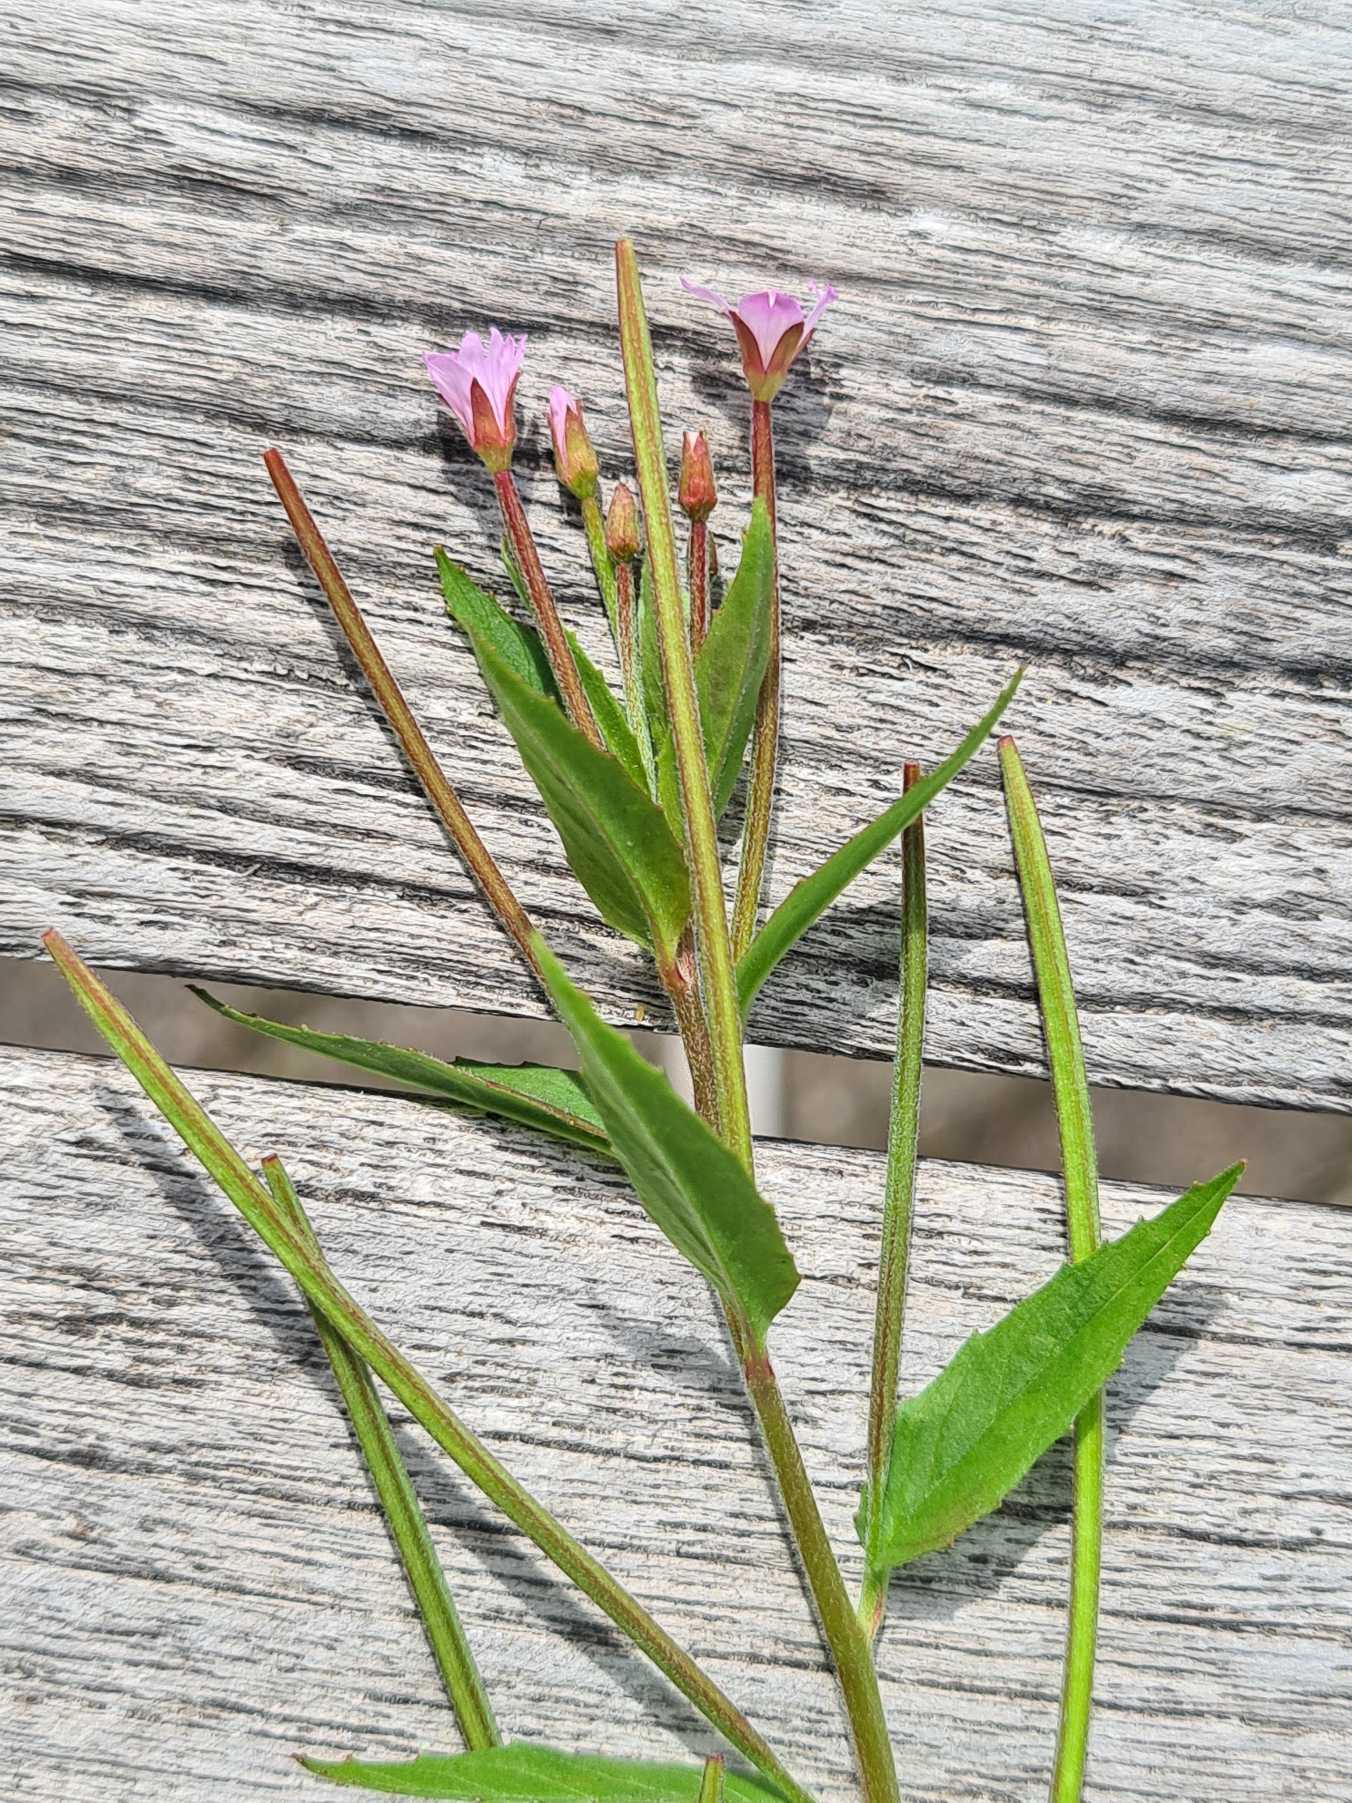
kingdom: Plantae
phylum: Tracheophyta
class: Magnoliopsida
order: Myrtales
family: Onagraceae
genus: Epilobium
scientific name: Epilobium ciliatum
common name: Kirtlet dueurt
